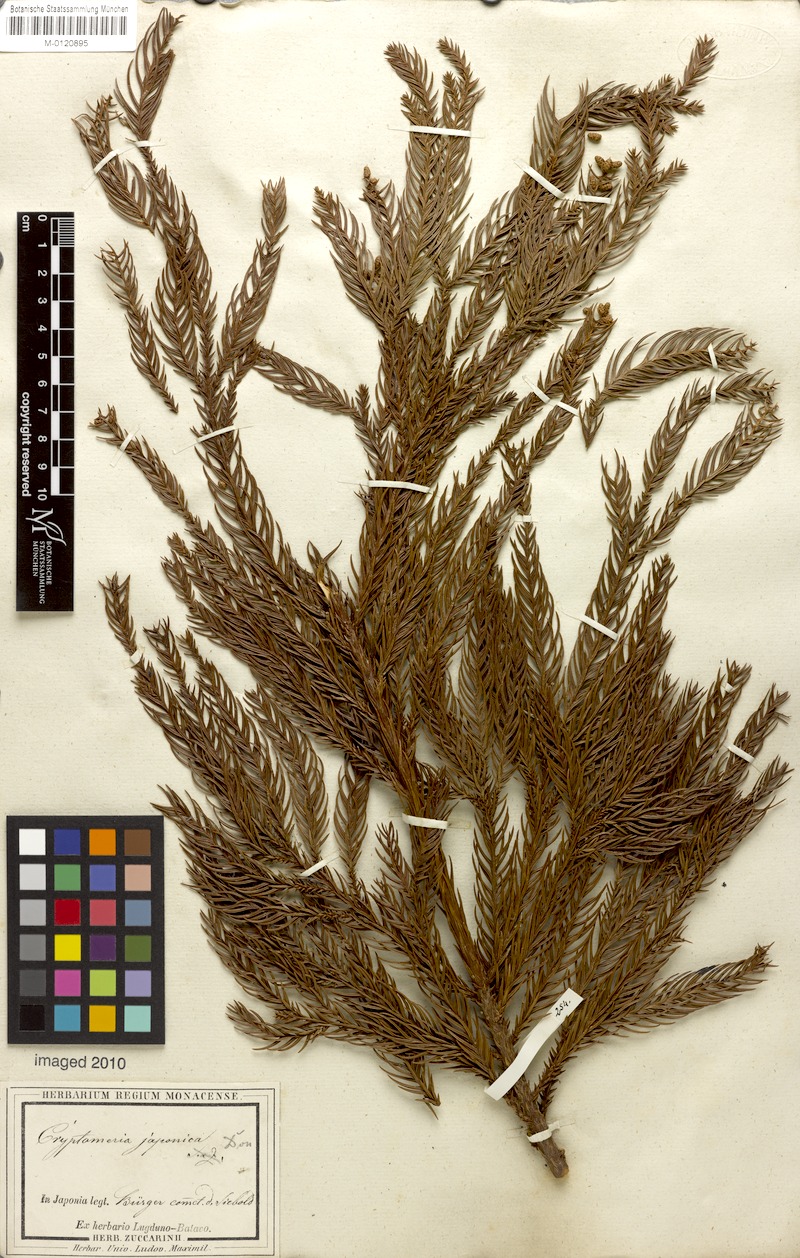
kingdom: Plantae
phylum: Tracheophyta
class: Pinopsida
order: Pinales
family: Cupressaceae
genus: Cryptomeria
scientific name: Cryptomeria japonica
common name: Japanese cedar
